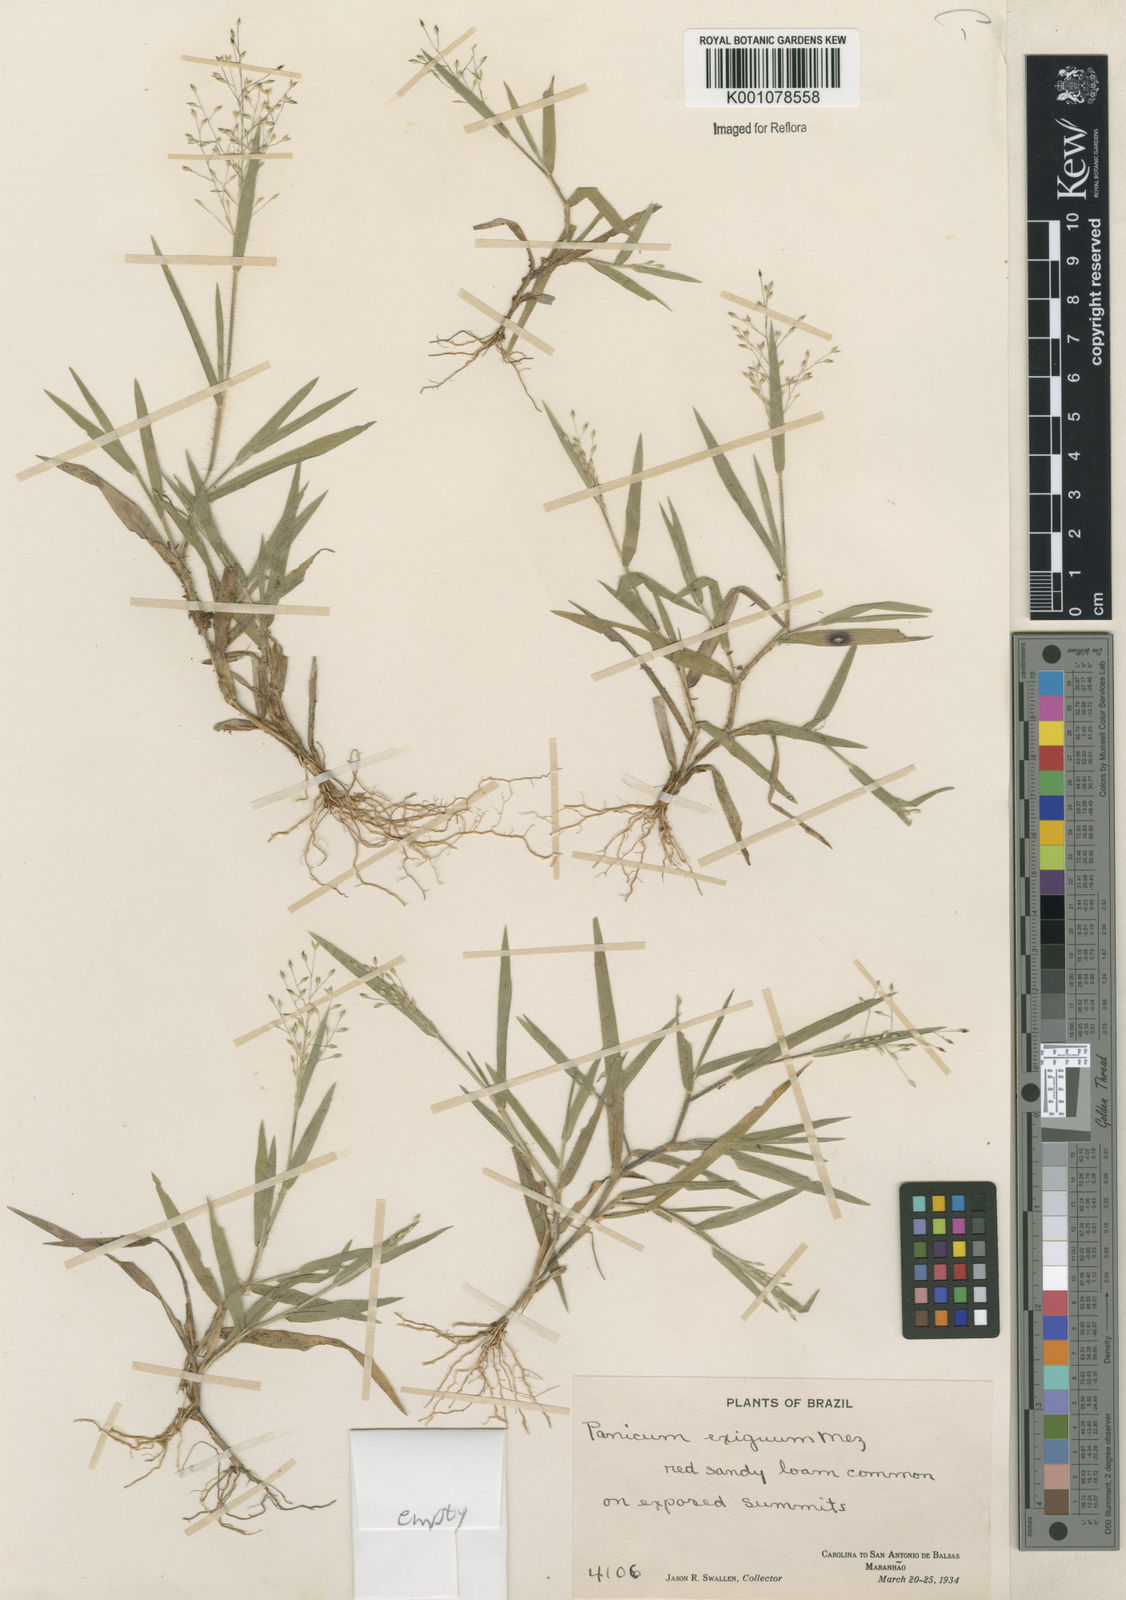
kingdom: Plantae
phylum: Tracheophyta
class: Liliopsida
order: Poales
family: Poaceae
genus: Panicum
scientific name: Panicum exiguum
